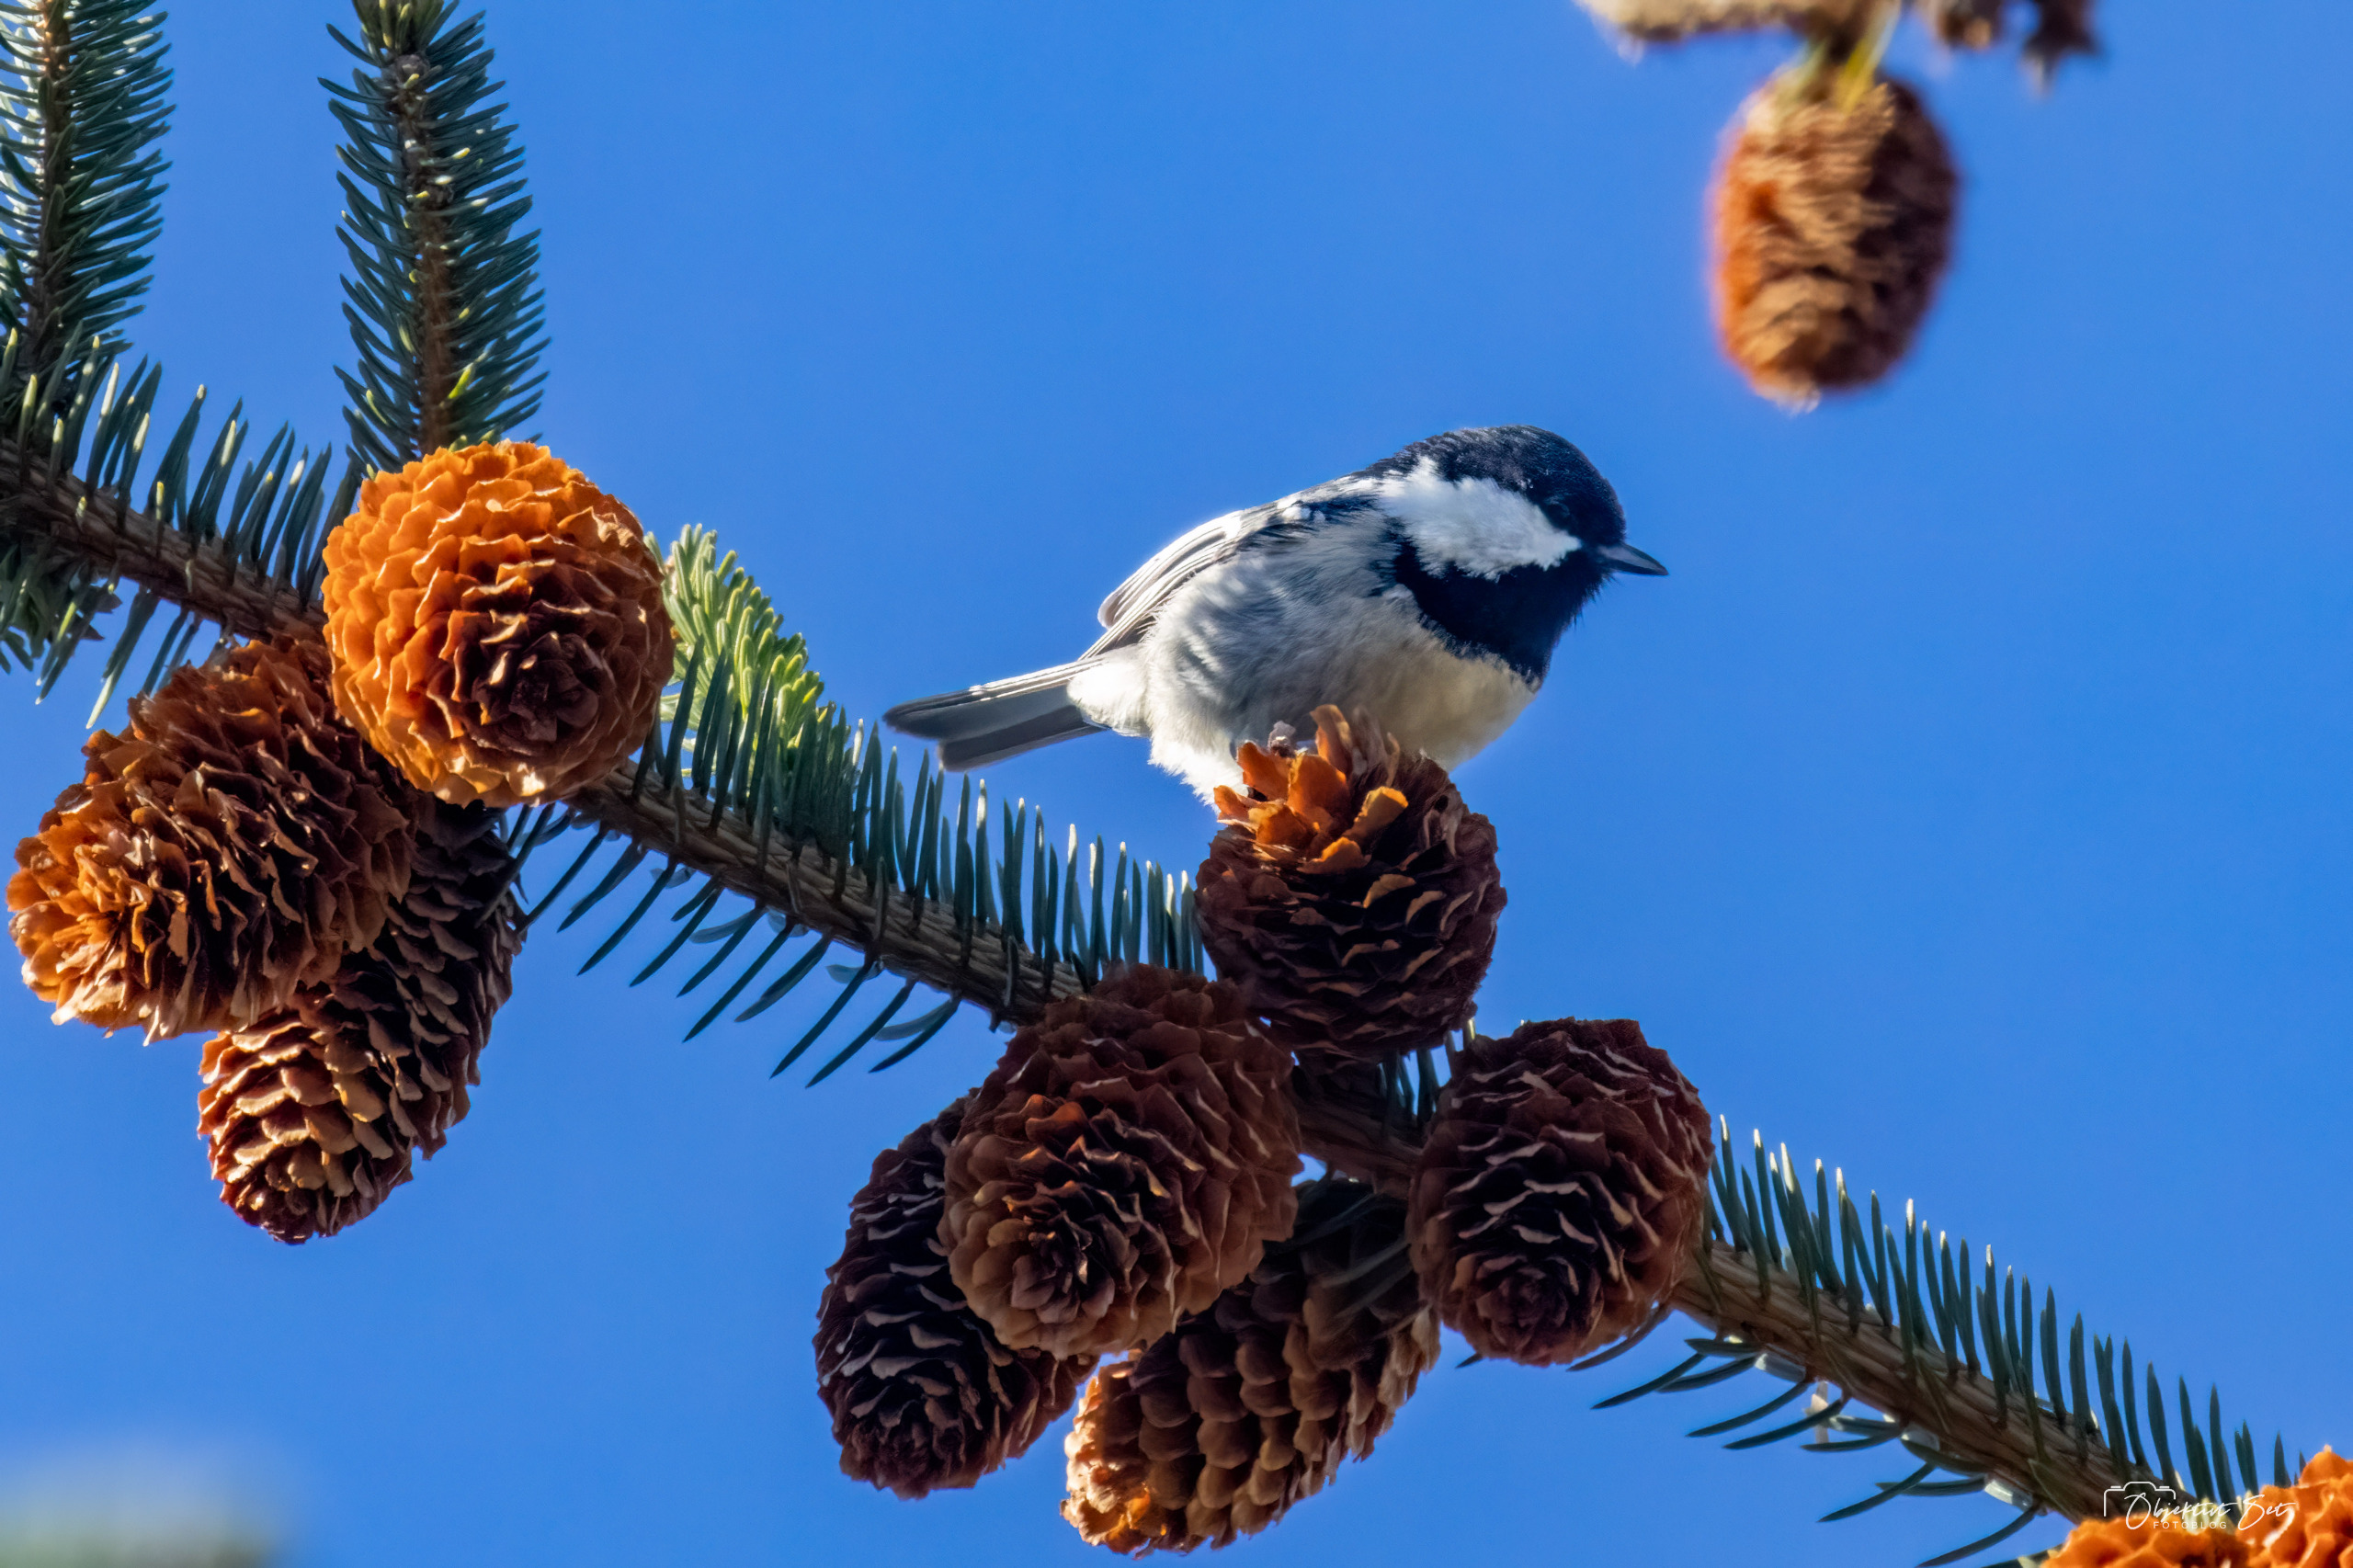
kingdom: Animalia
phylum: Chordata
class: Aves
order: Passeriformes
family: Paridae
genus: Periparus
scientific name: Periparus ater
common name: Sortmejse
